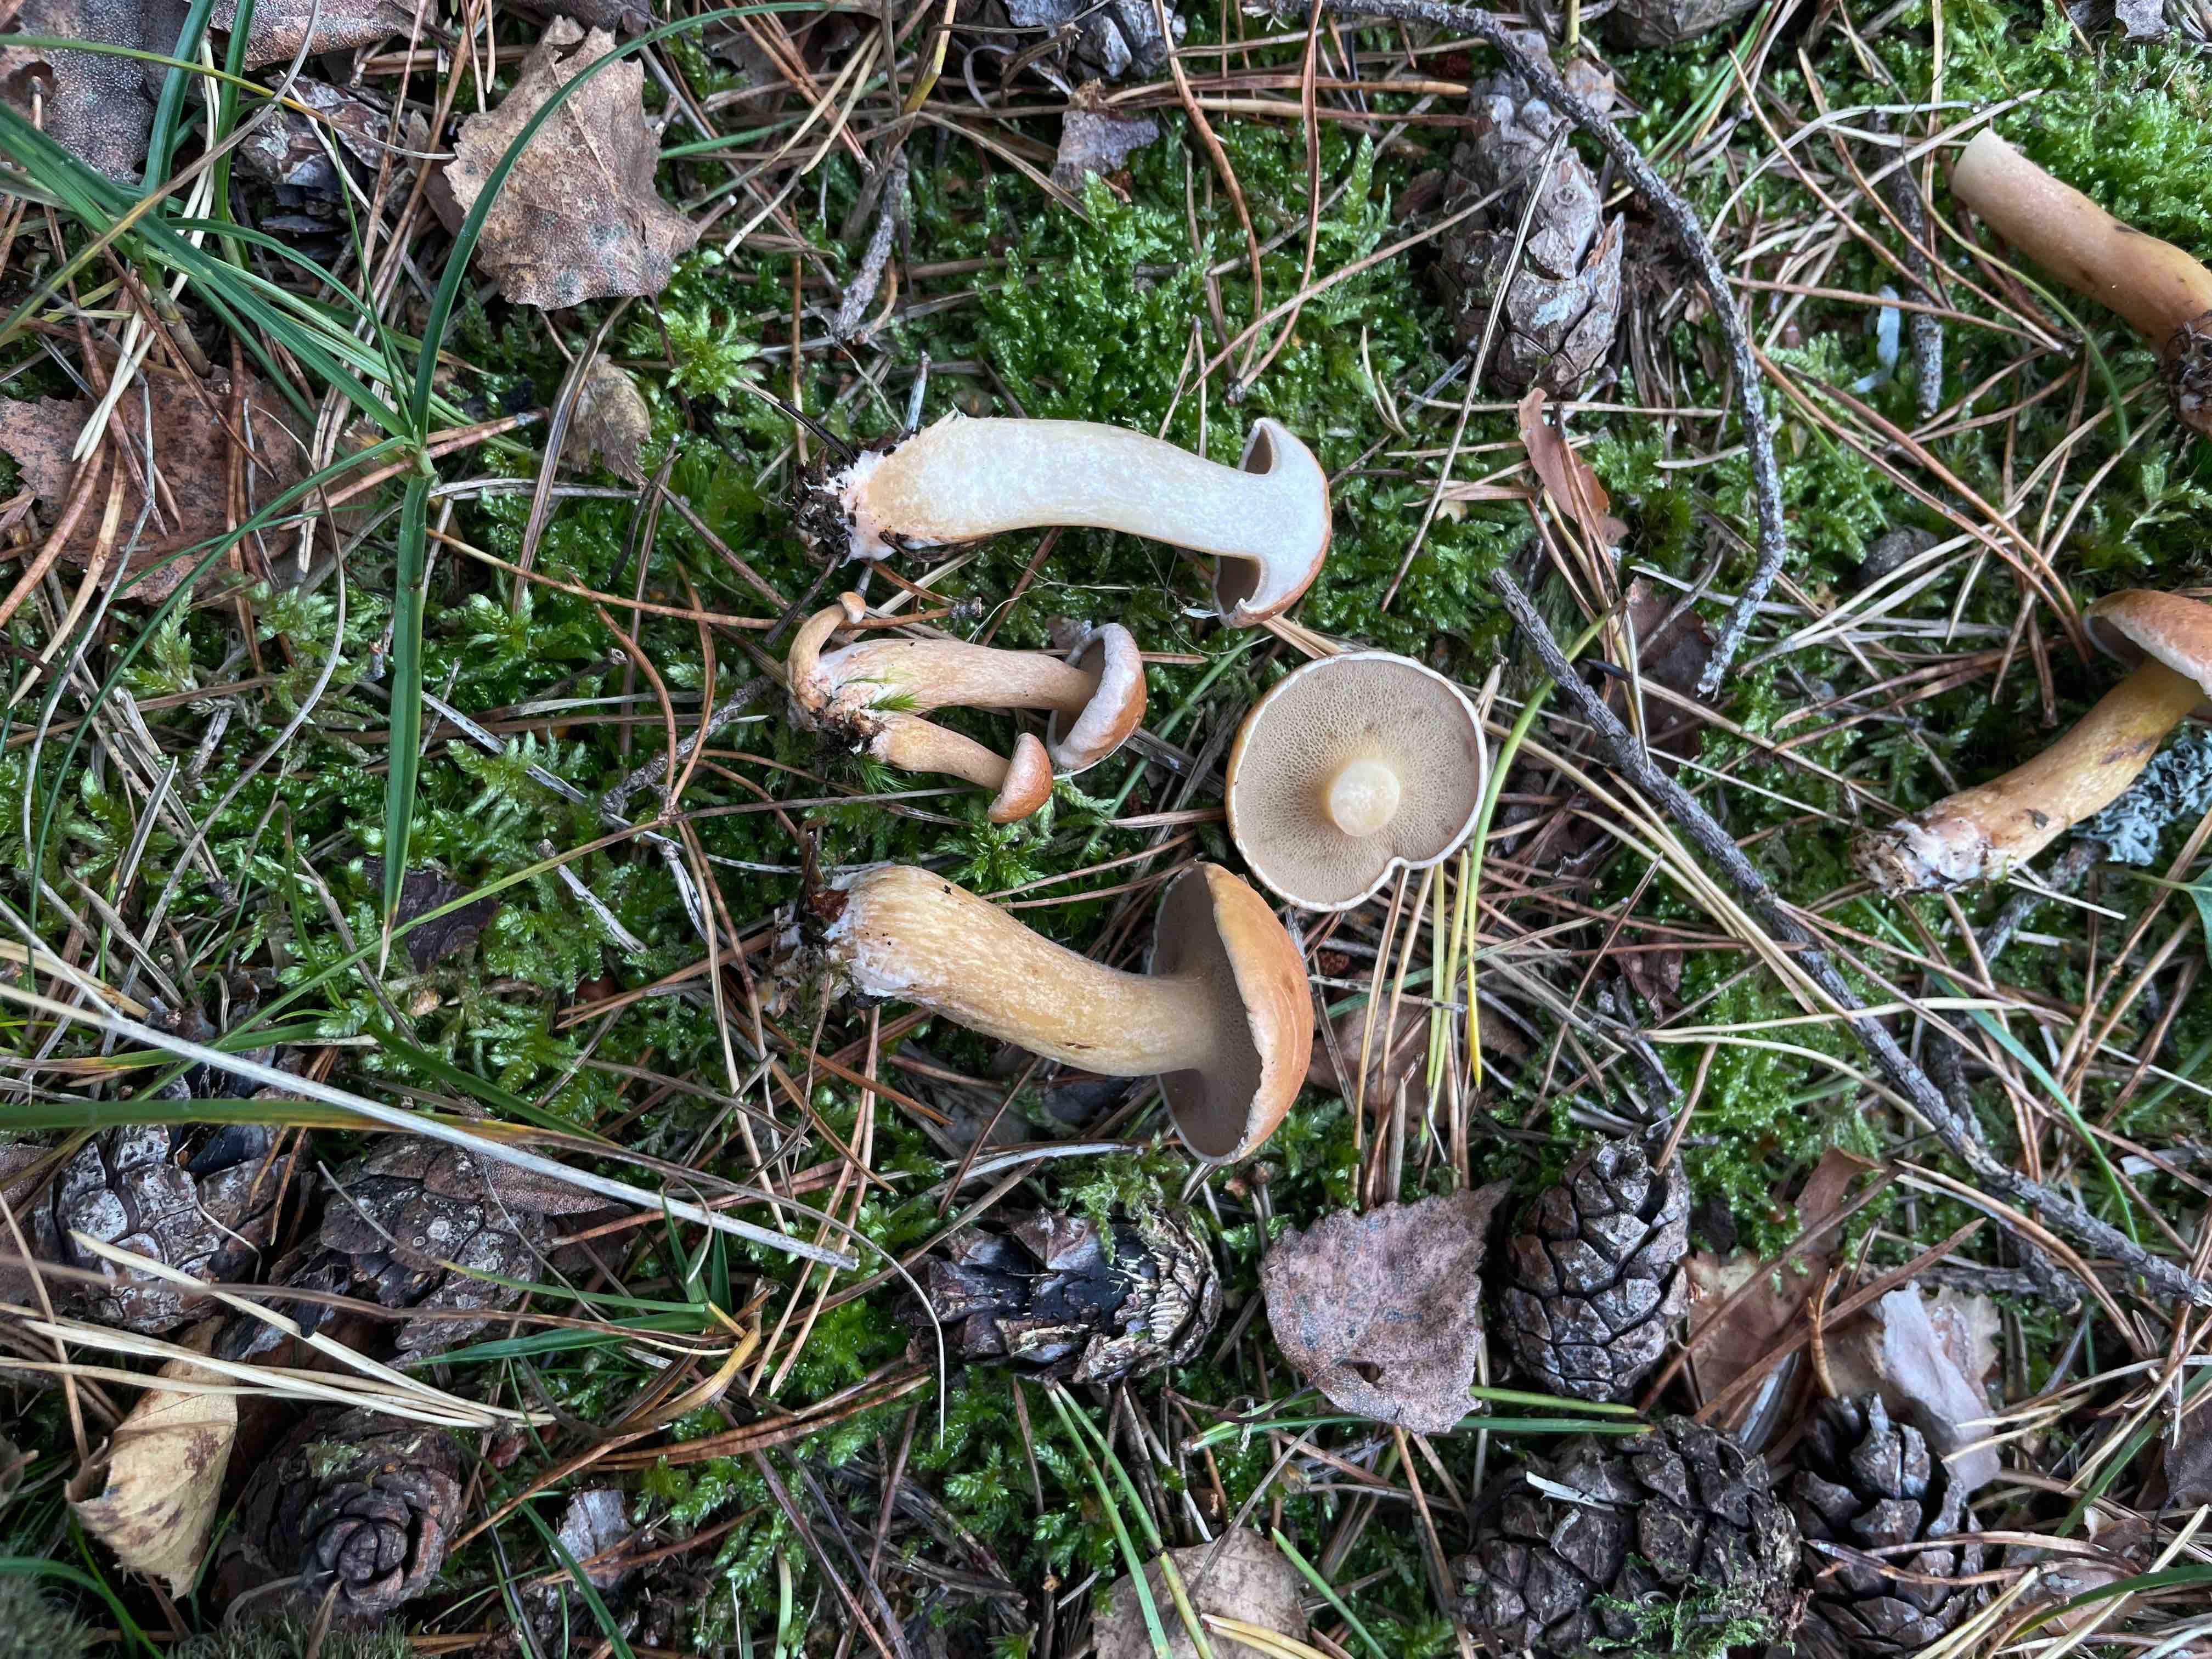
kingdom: Fungi
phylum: Basidiomycota
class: Agaricomycetes
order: Boletales
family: Suillaceae
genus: Suillus
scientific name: Suillus bovinus
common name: grovporet slimrørhat
